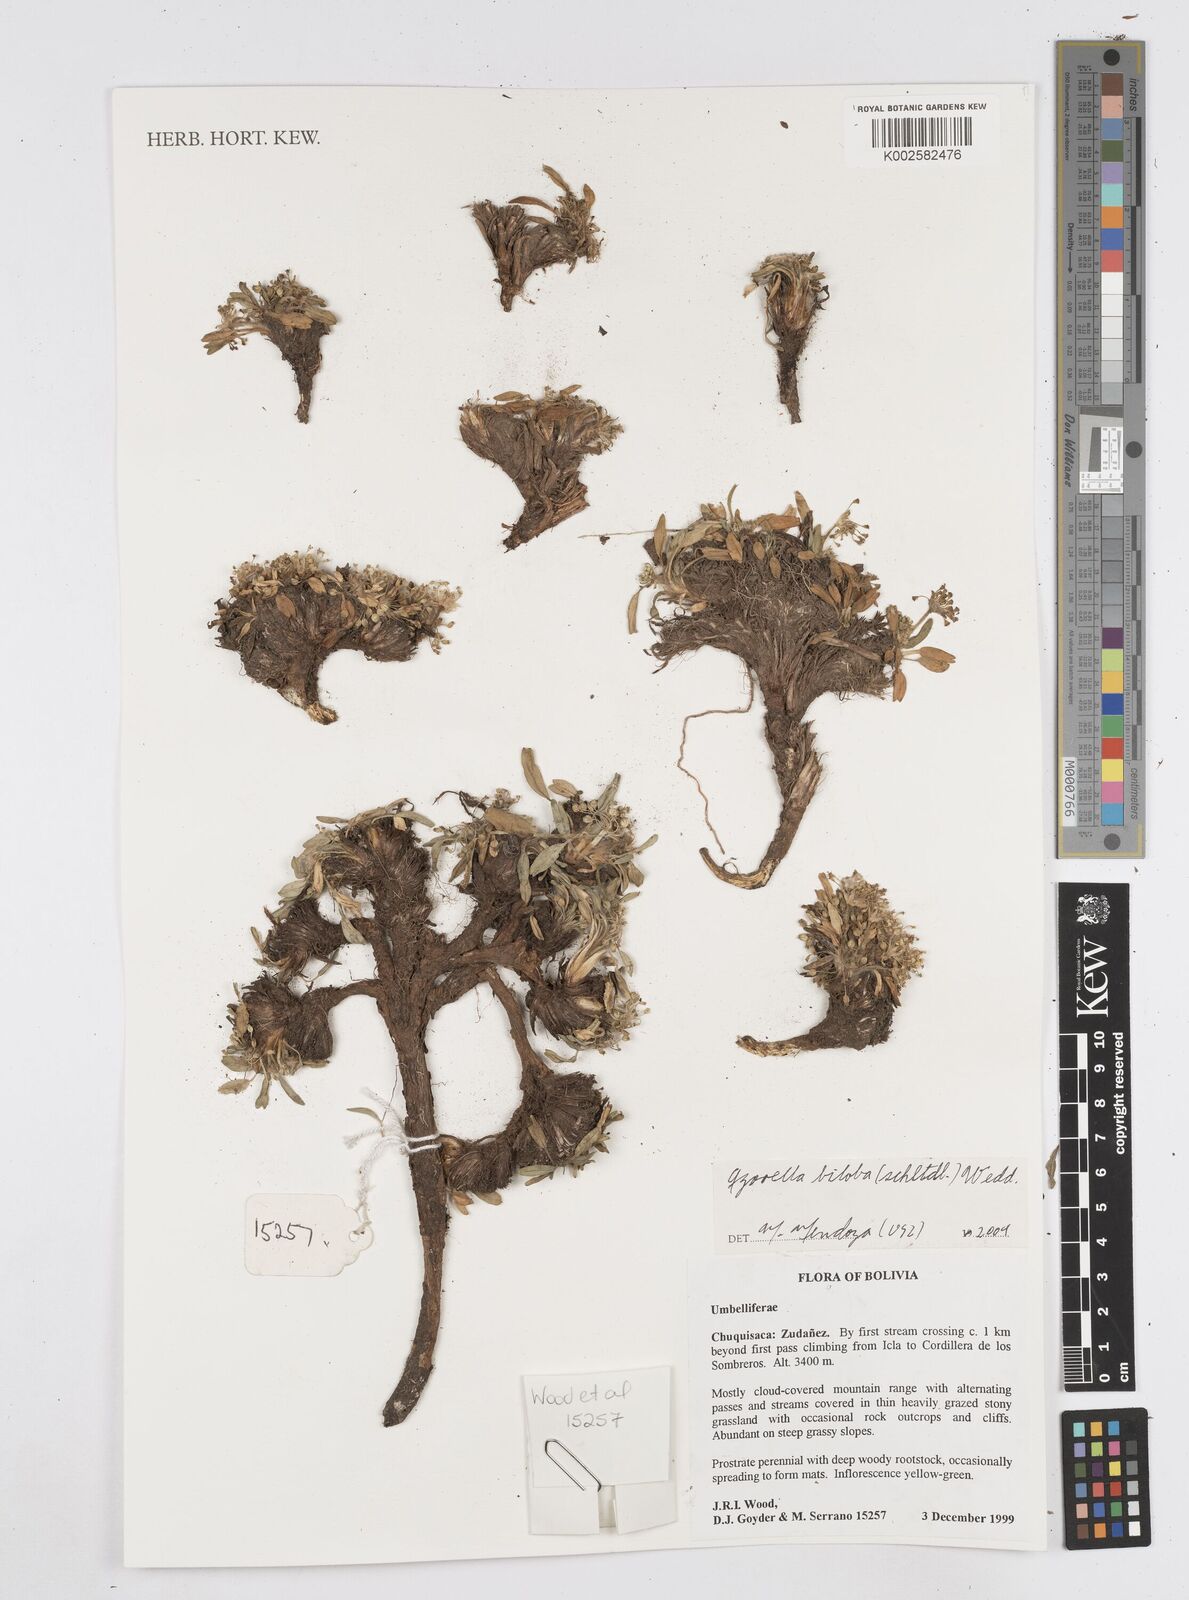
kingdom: Plantae
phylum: Tracheophyta
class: Magnoliopsida
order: Apiales
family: Apiaceae
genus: Azorella
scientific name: Azorella biloba
